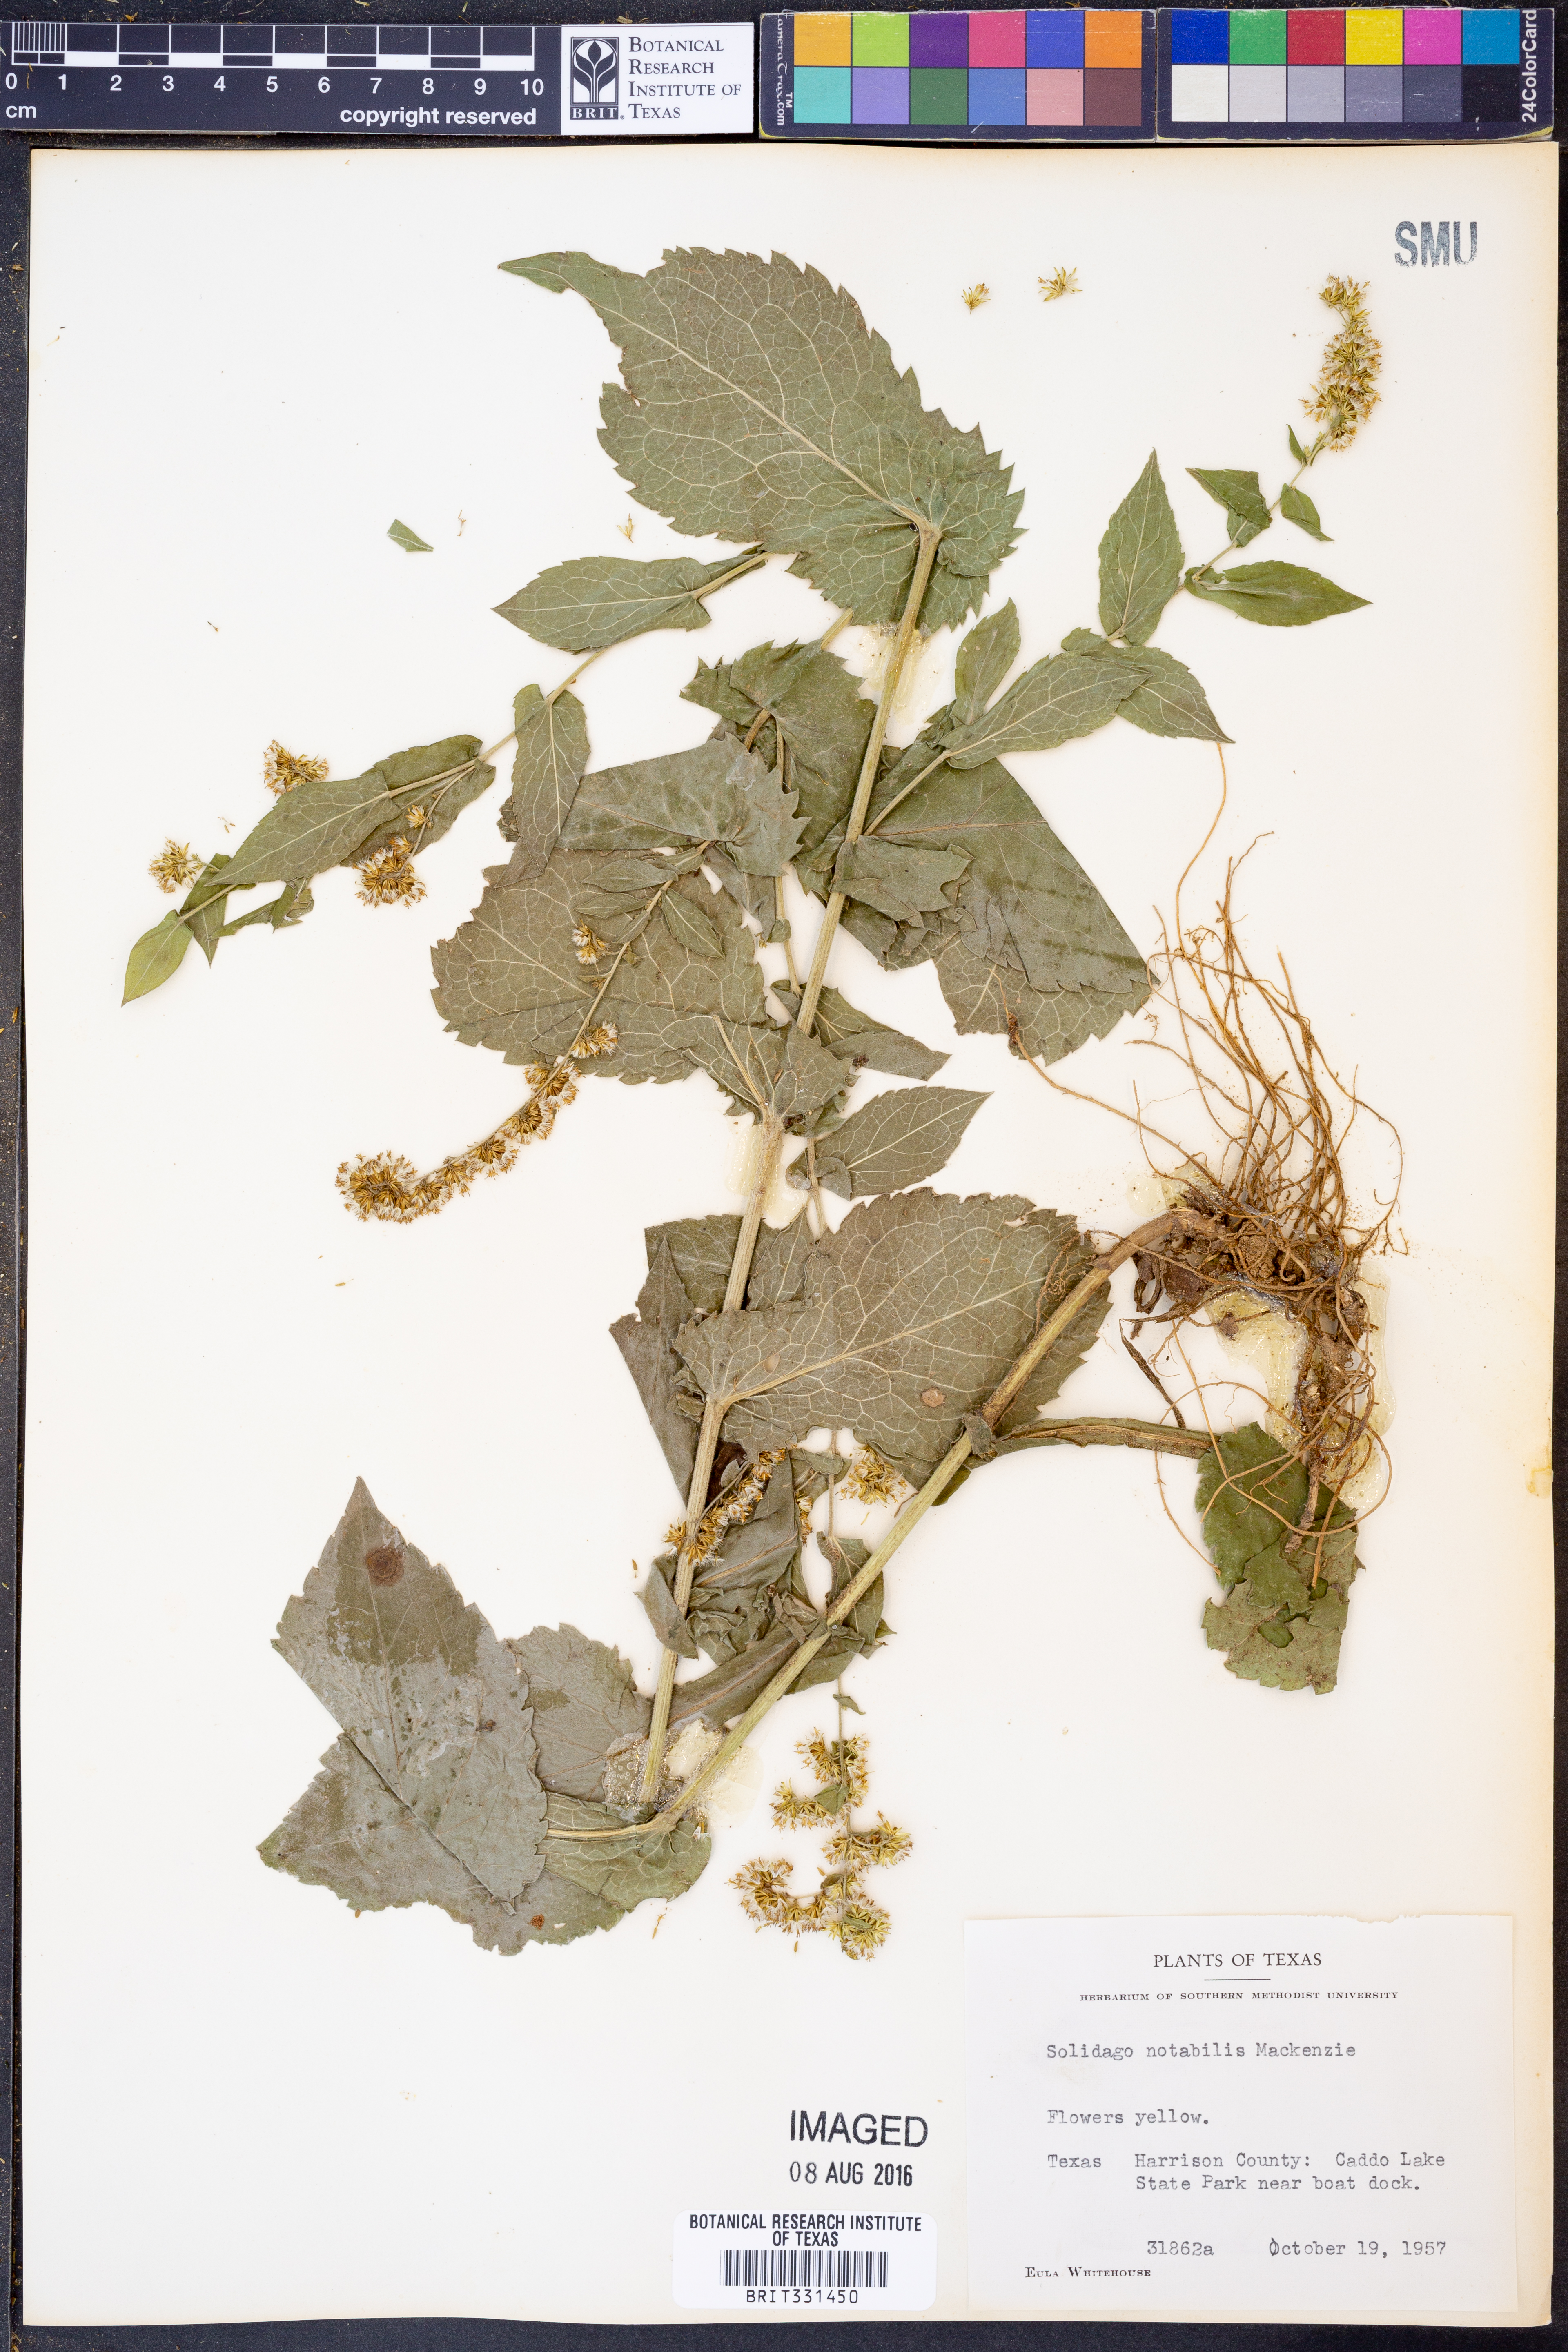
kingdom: Plantae
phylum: Tracheophyta
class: Magnoliopsida
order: Asterales
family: Asteraceae
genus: Solidago
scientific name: Solidago auriculata
